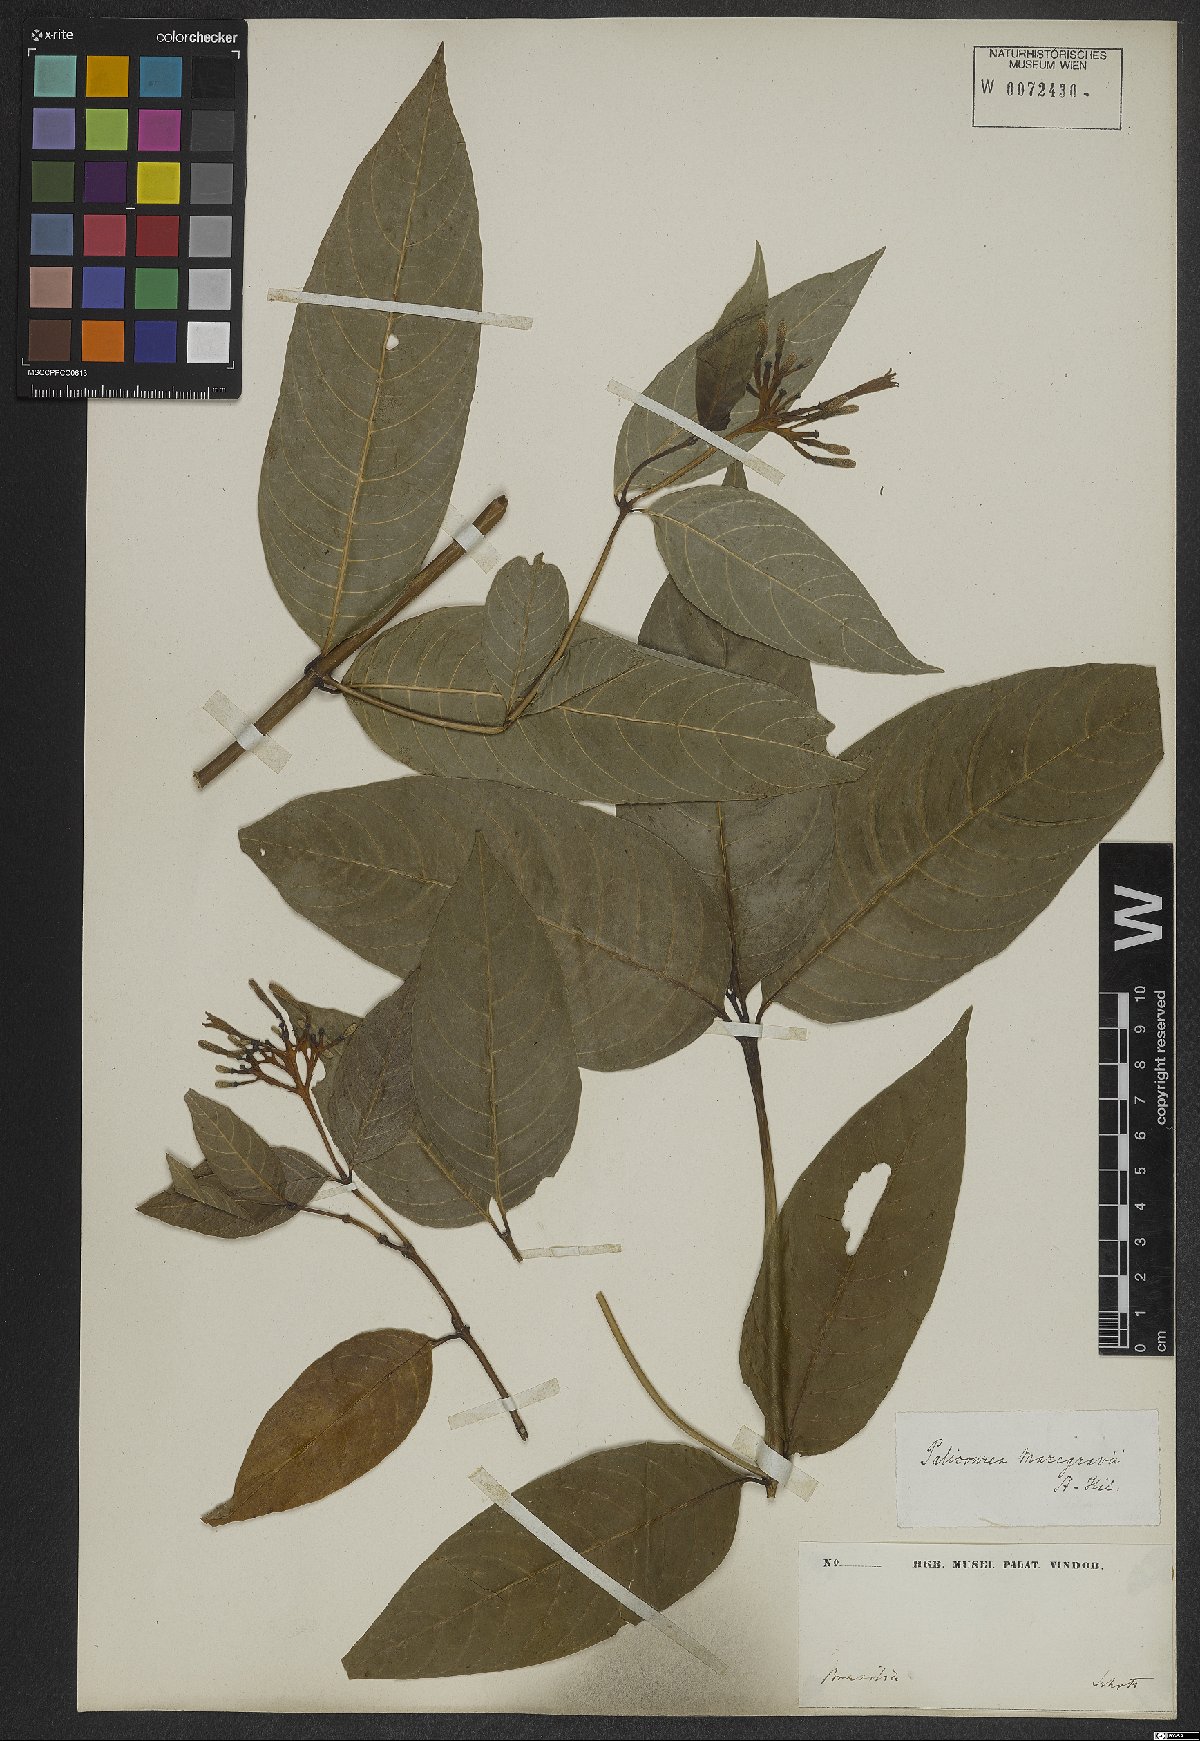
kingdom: Plantae
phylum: Tracheophyta
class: Magnoliopsida
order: Gentianales
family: Rubiaceae
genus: Palicourea
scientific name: Palicourea marcgravii
